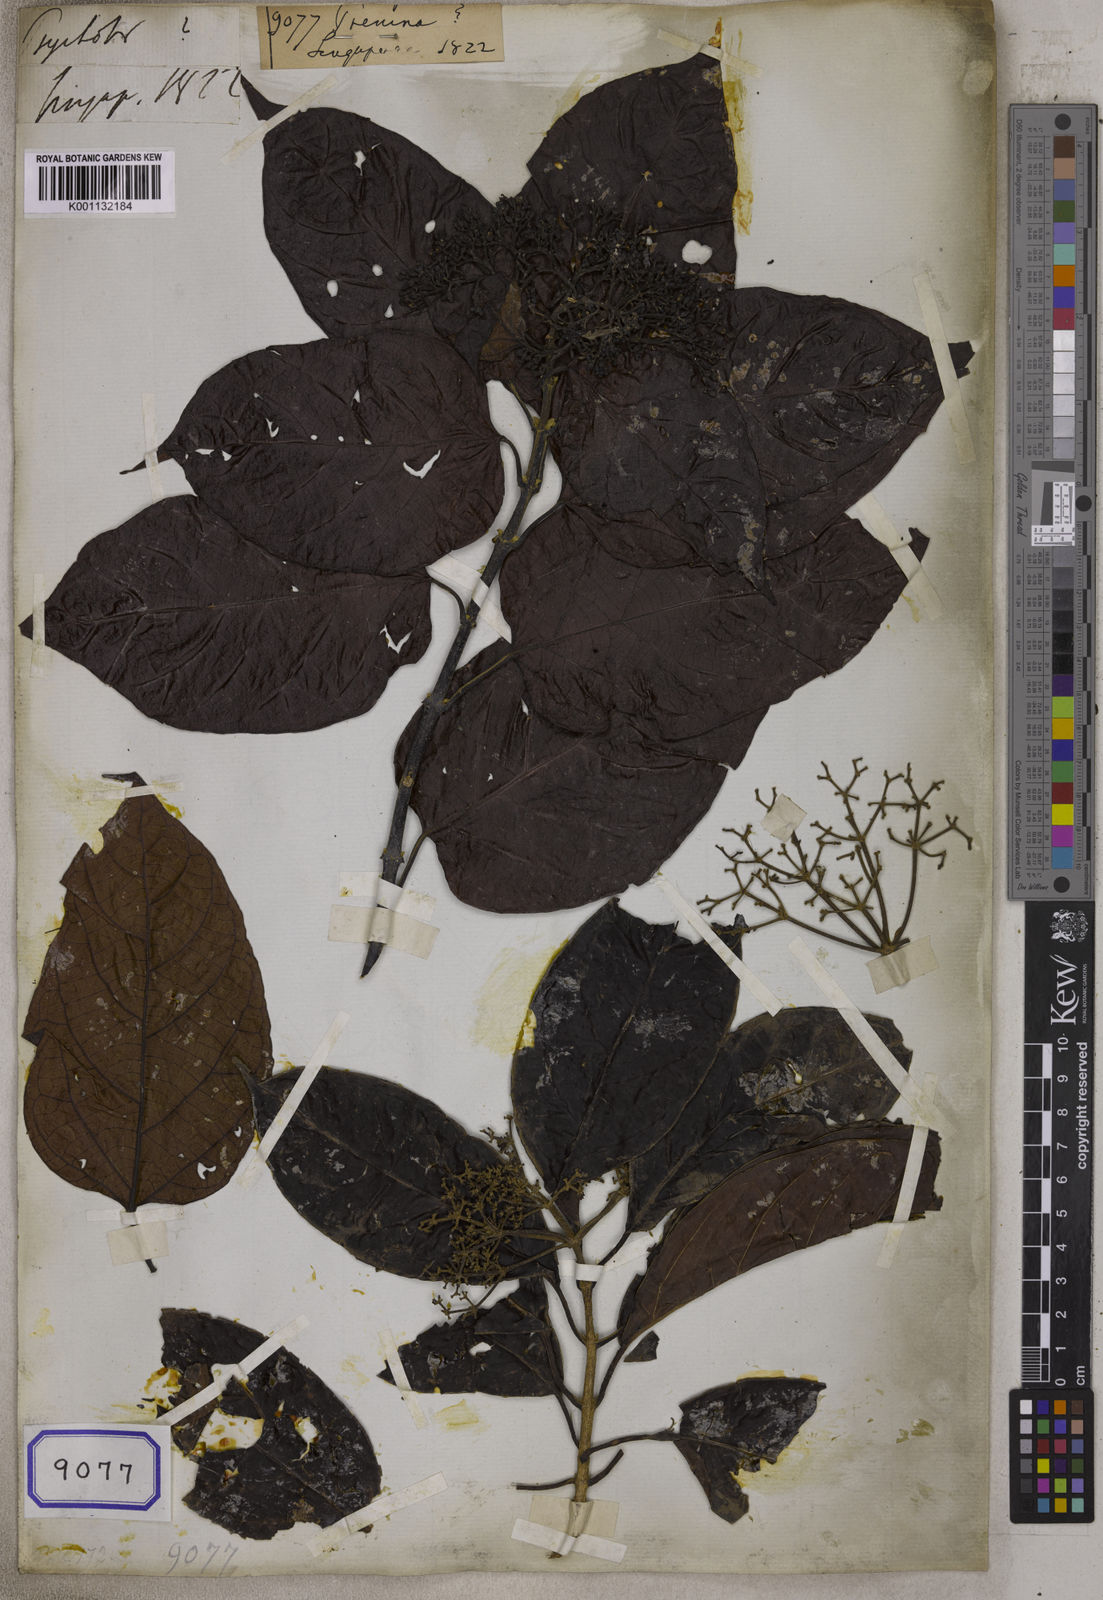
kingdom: Plantae
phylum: Tracheophyta
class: Magnoliopsida
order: Lamiales
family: Lamiaceae
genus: Premna
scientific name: Premna
